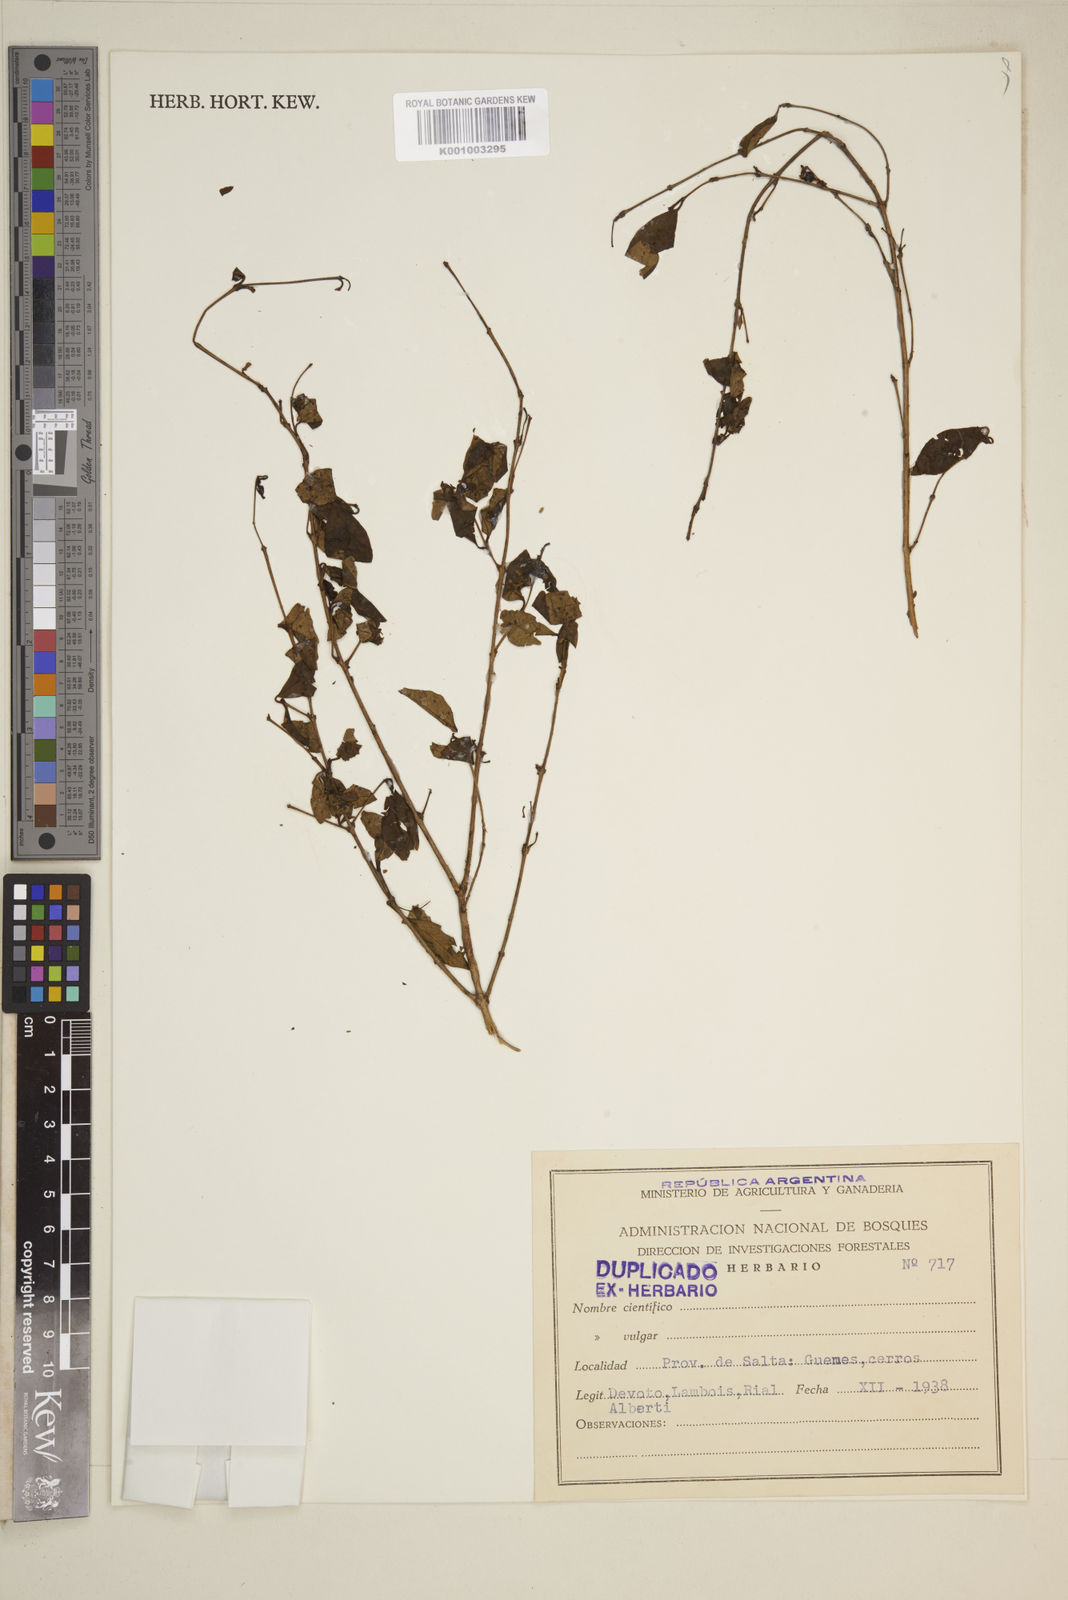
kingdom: Plantae
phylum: Tracheophyta
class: Magnoliopsida
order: Myrtales
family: Myrtaceae
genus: Eugenia
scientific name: Eugenia
